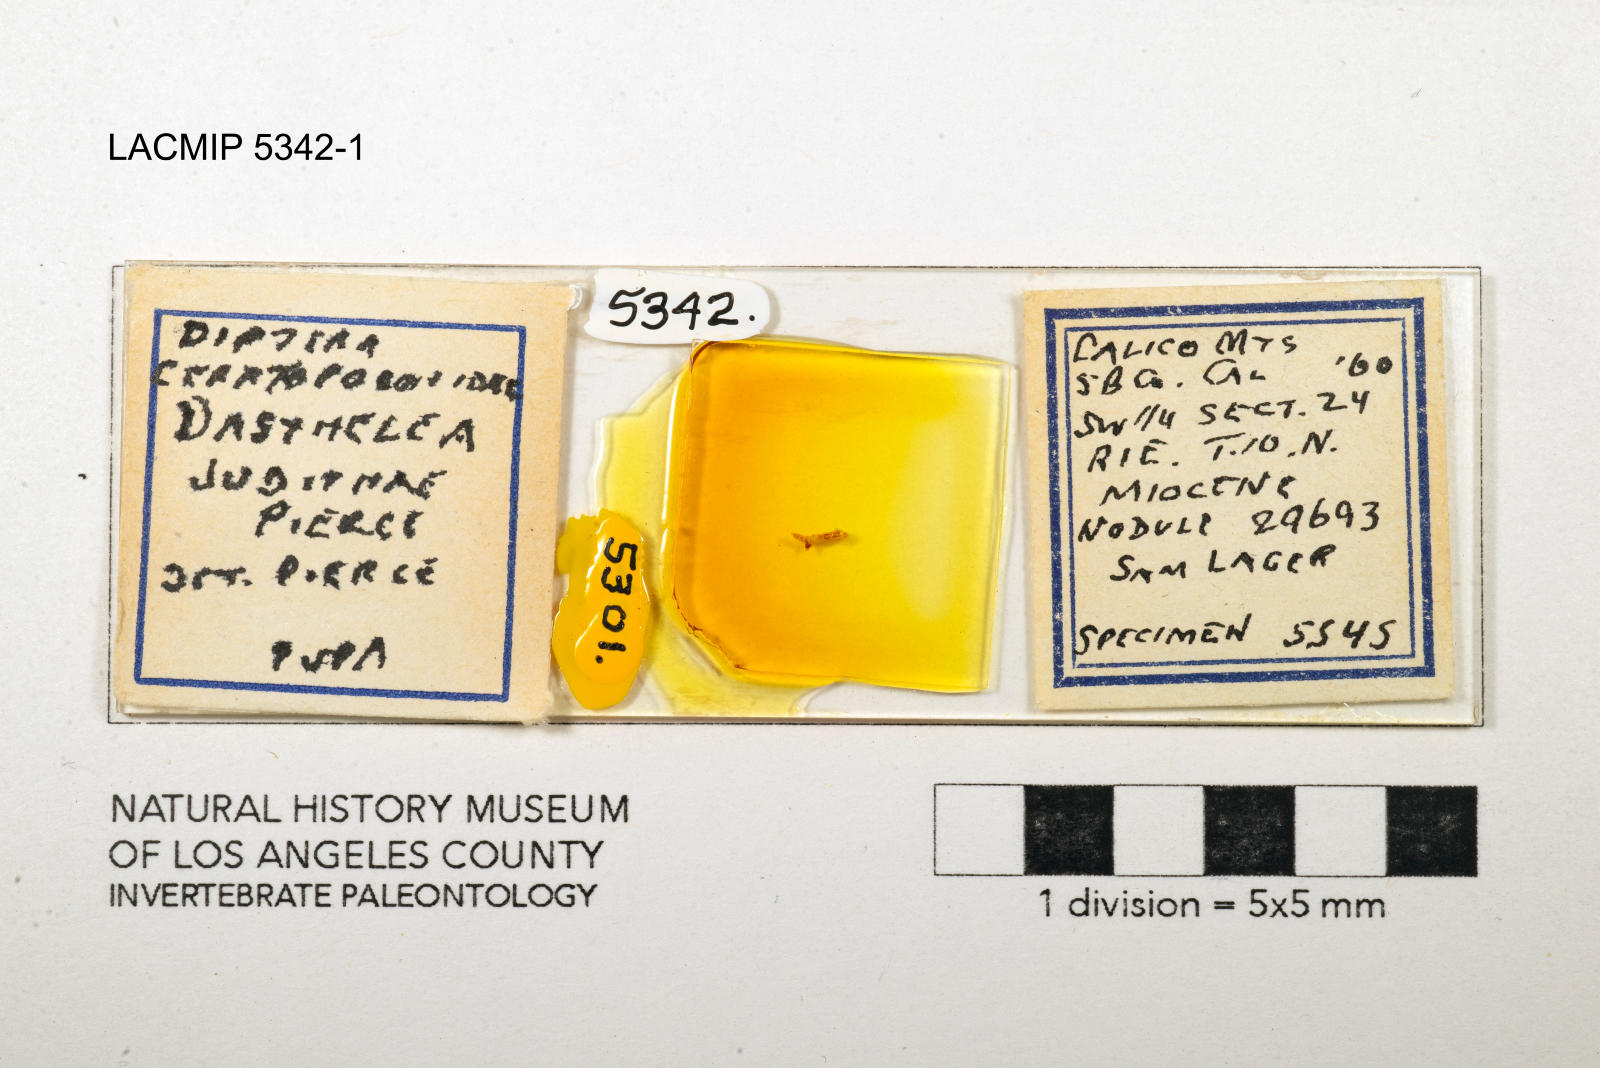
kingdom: Animalia
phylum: Arthropoda
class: Insecta
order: Diptera
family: Ceratopogonidae
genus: Dasyhelea
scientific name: Dasyhelea judithae
